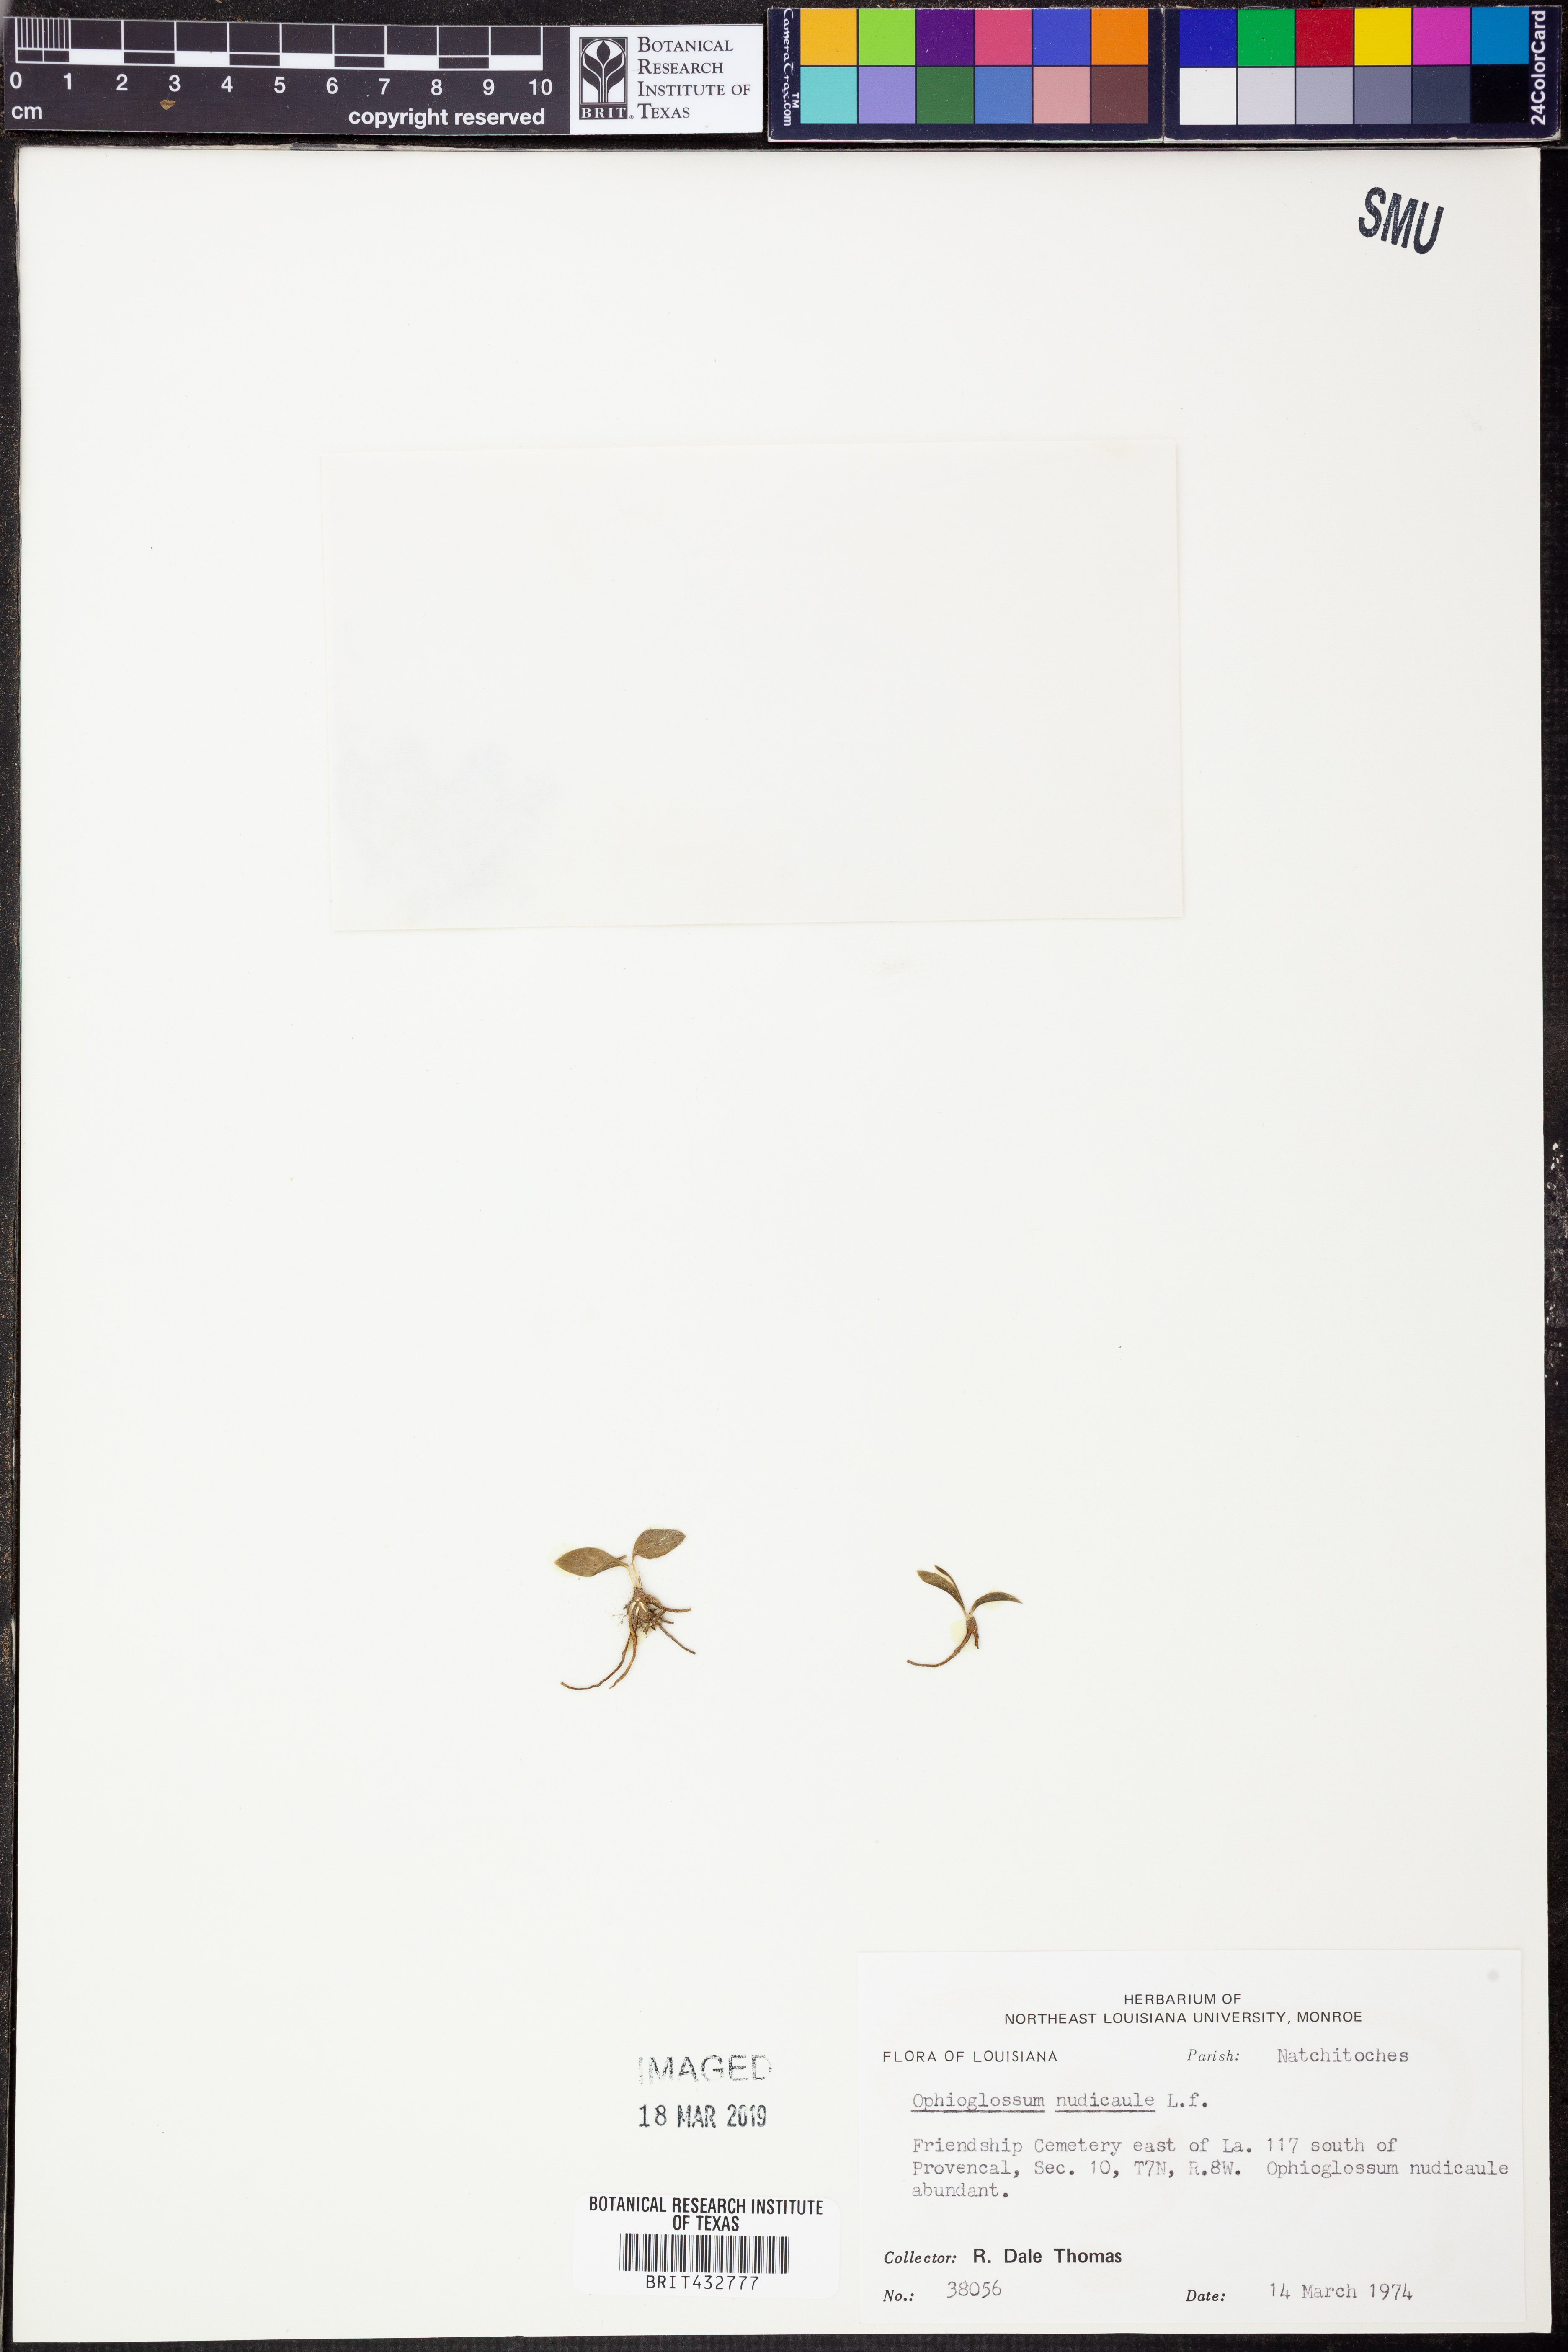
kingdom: Plantae
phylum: Tracheophyta
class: Polypodiopsida
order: Ophioglossales
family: Ophioglossaceae
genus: Ophioglossum
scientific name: Ophioglossum nudicaule
